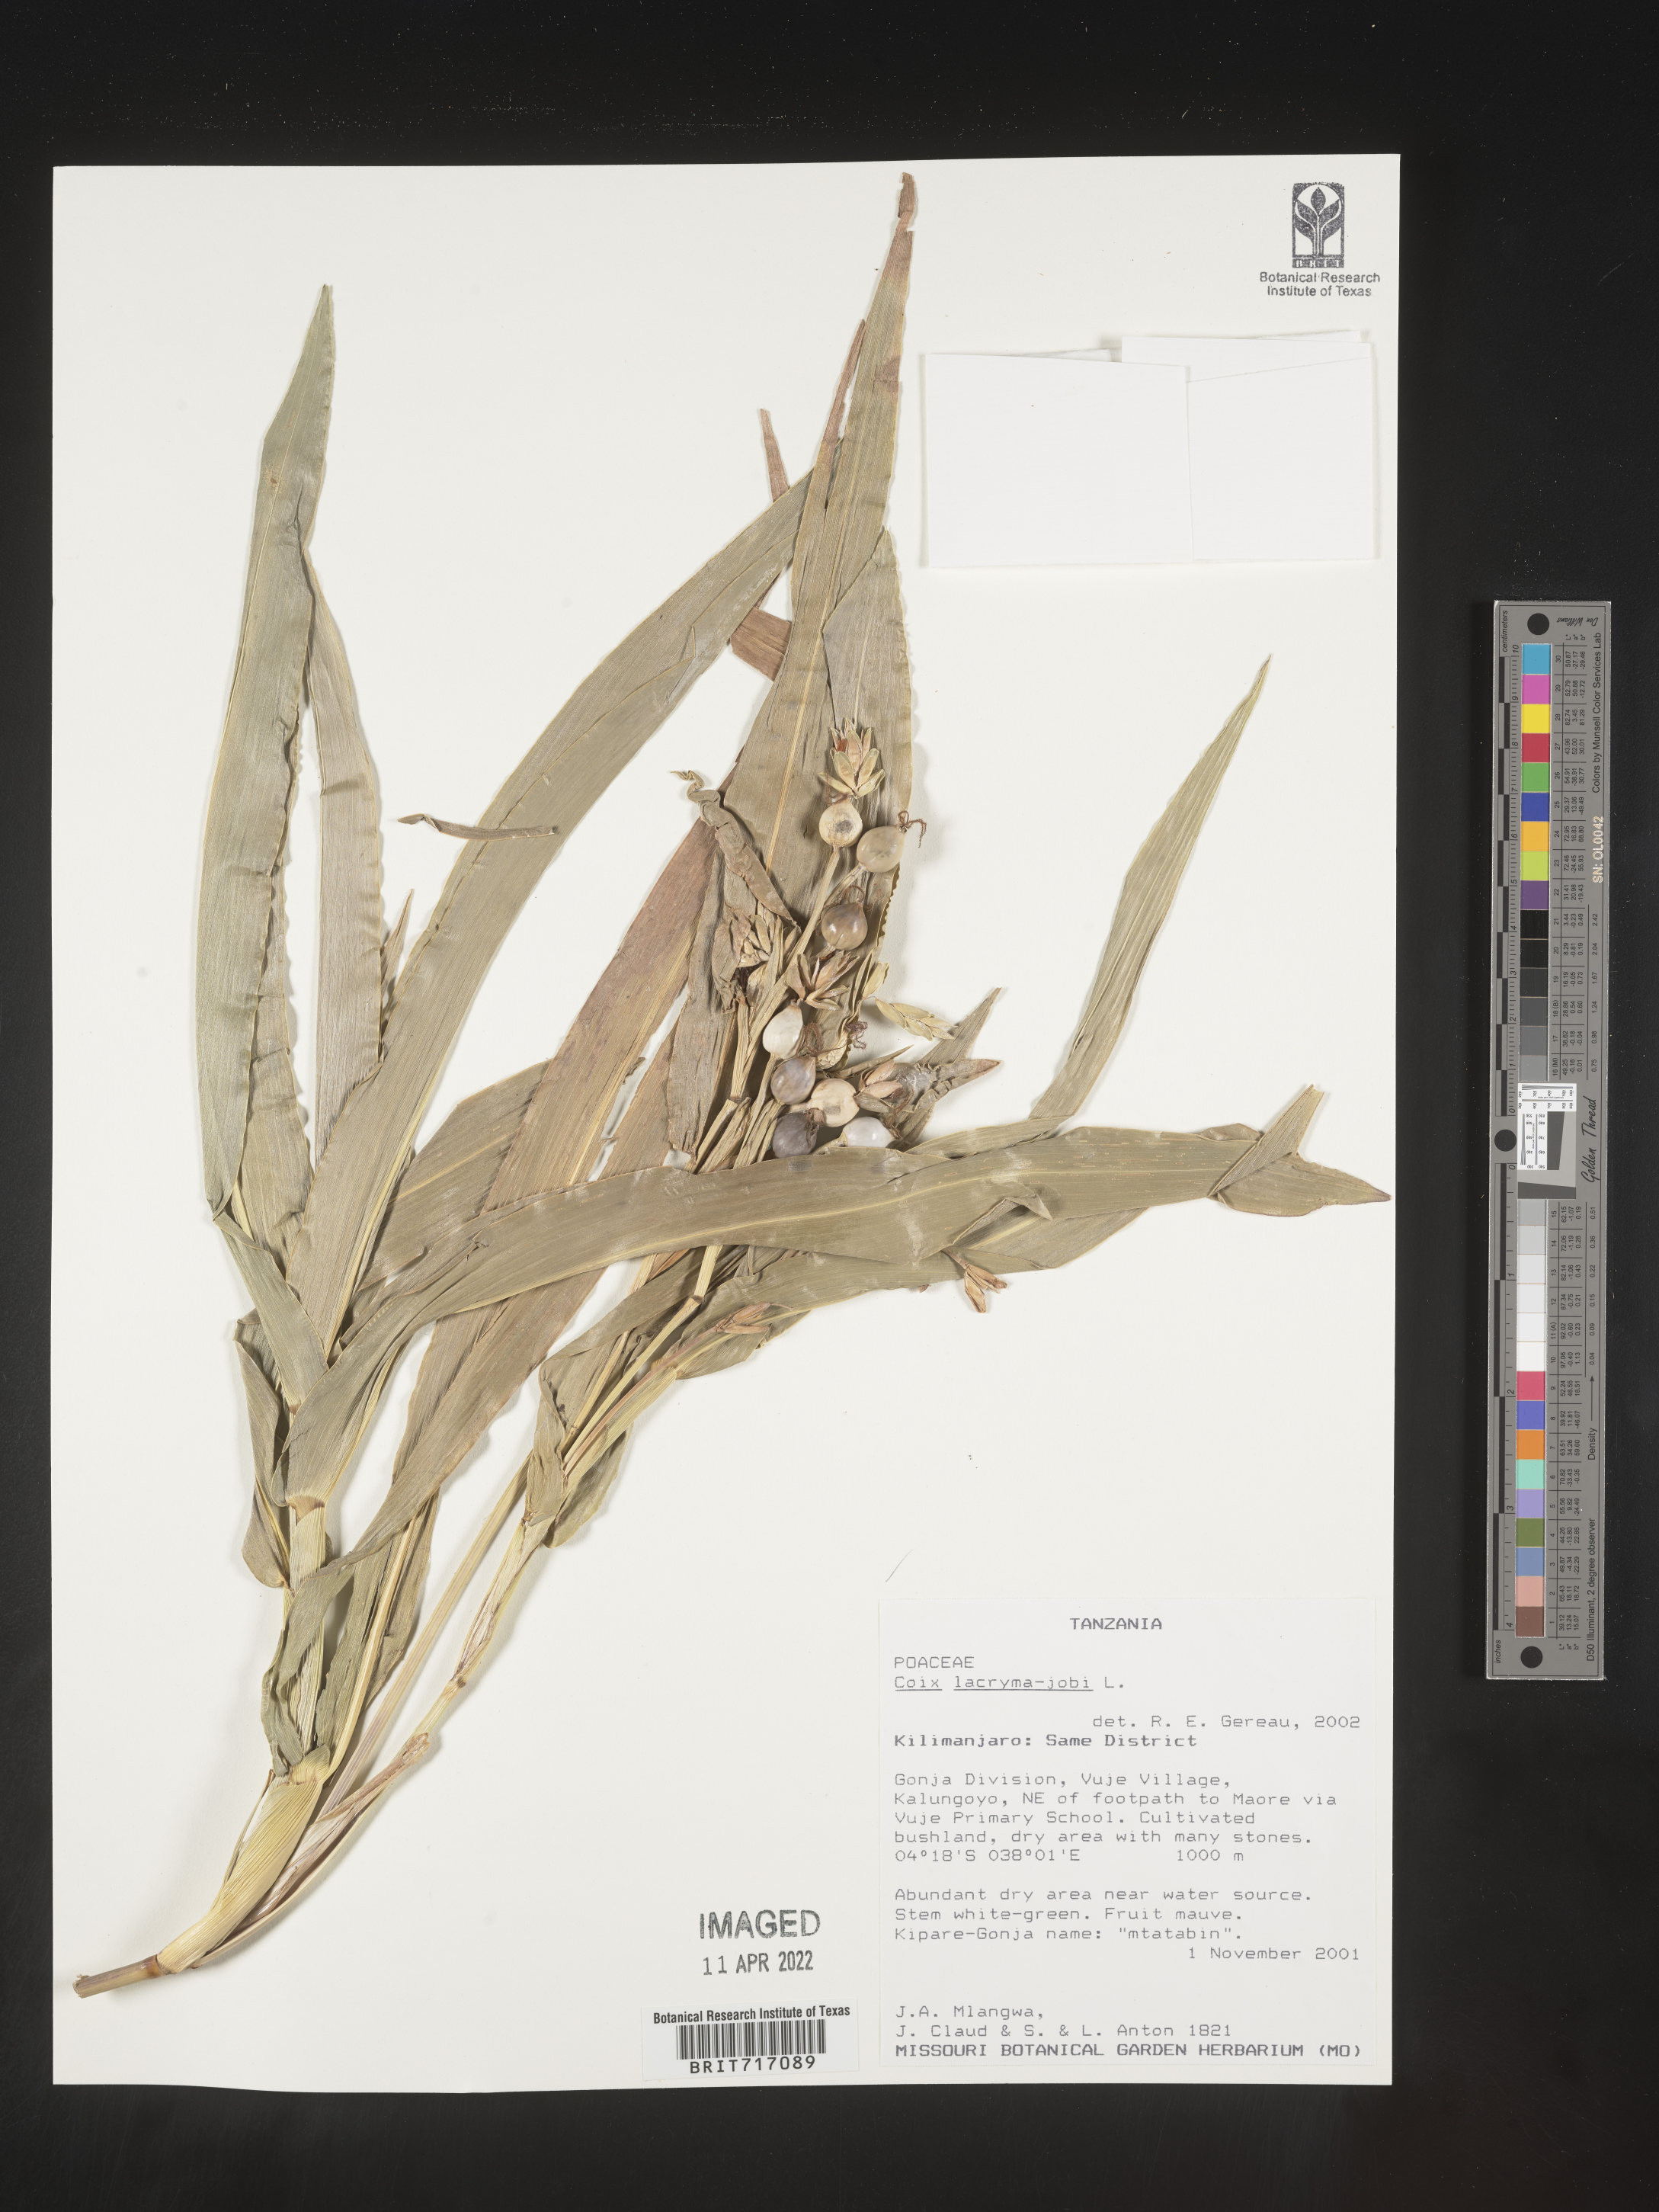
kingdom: Plantae
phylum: Tracheophyta
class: Liliopsida
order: Poales
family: Poaceae
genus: Coix
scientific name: Coix
